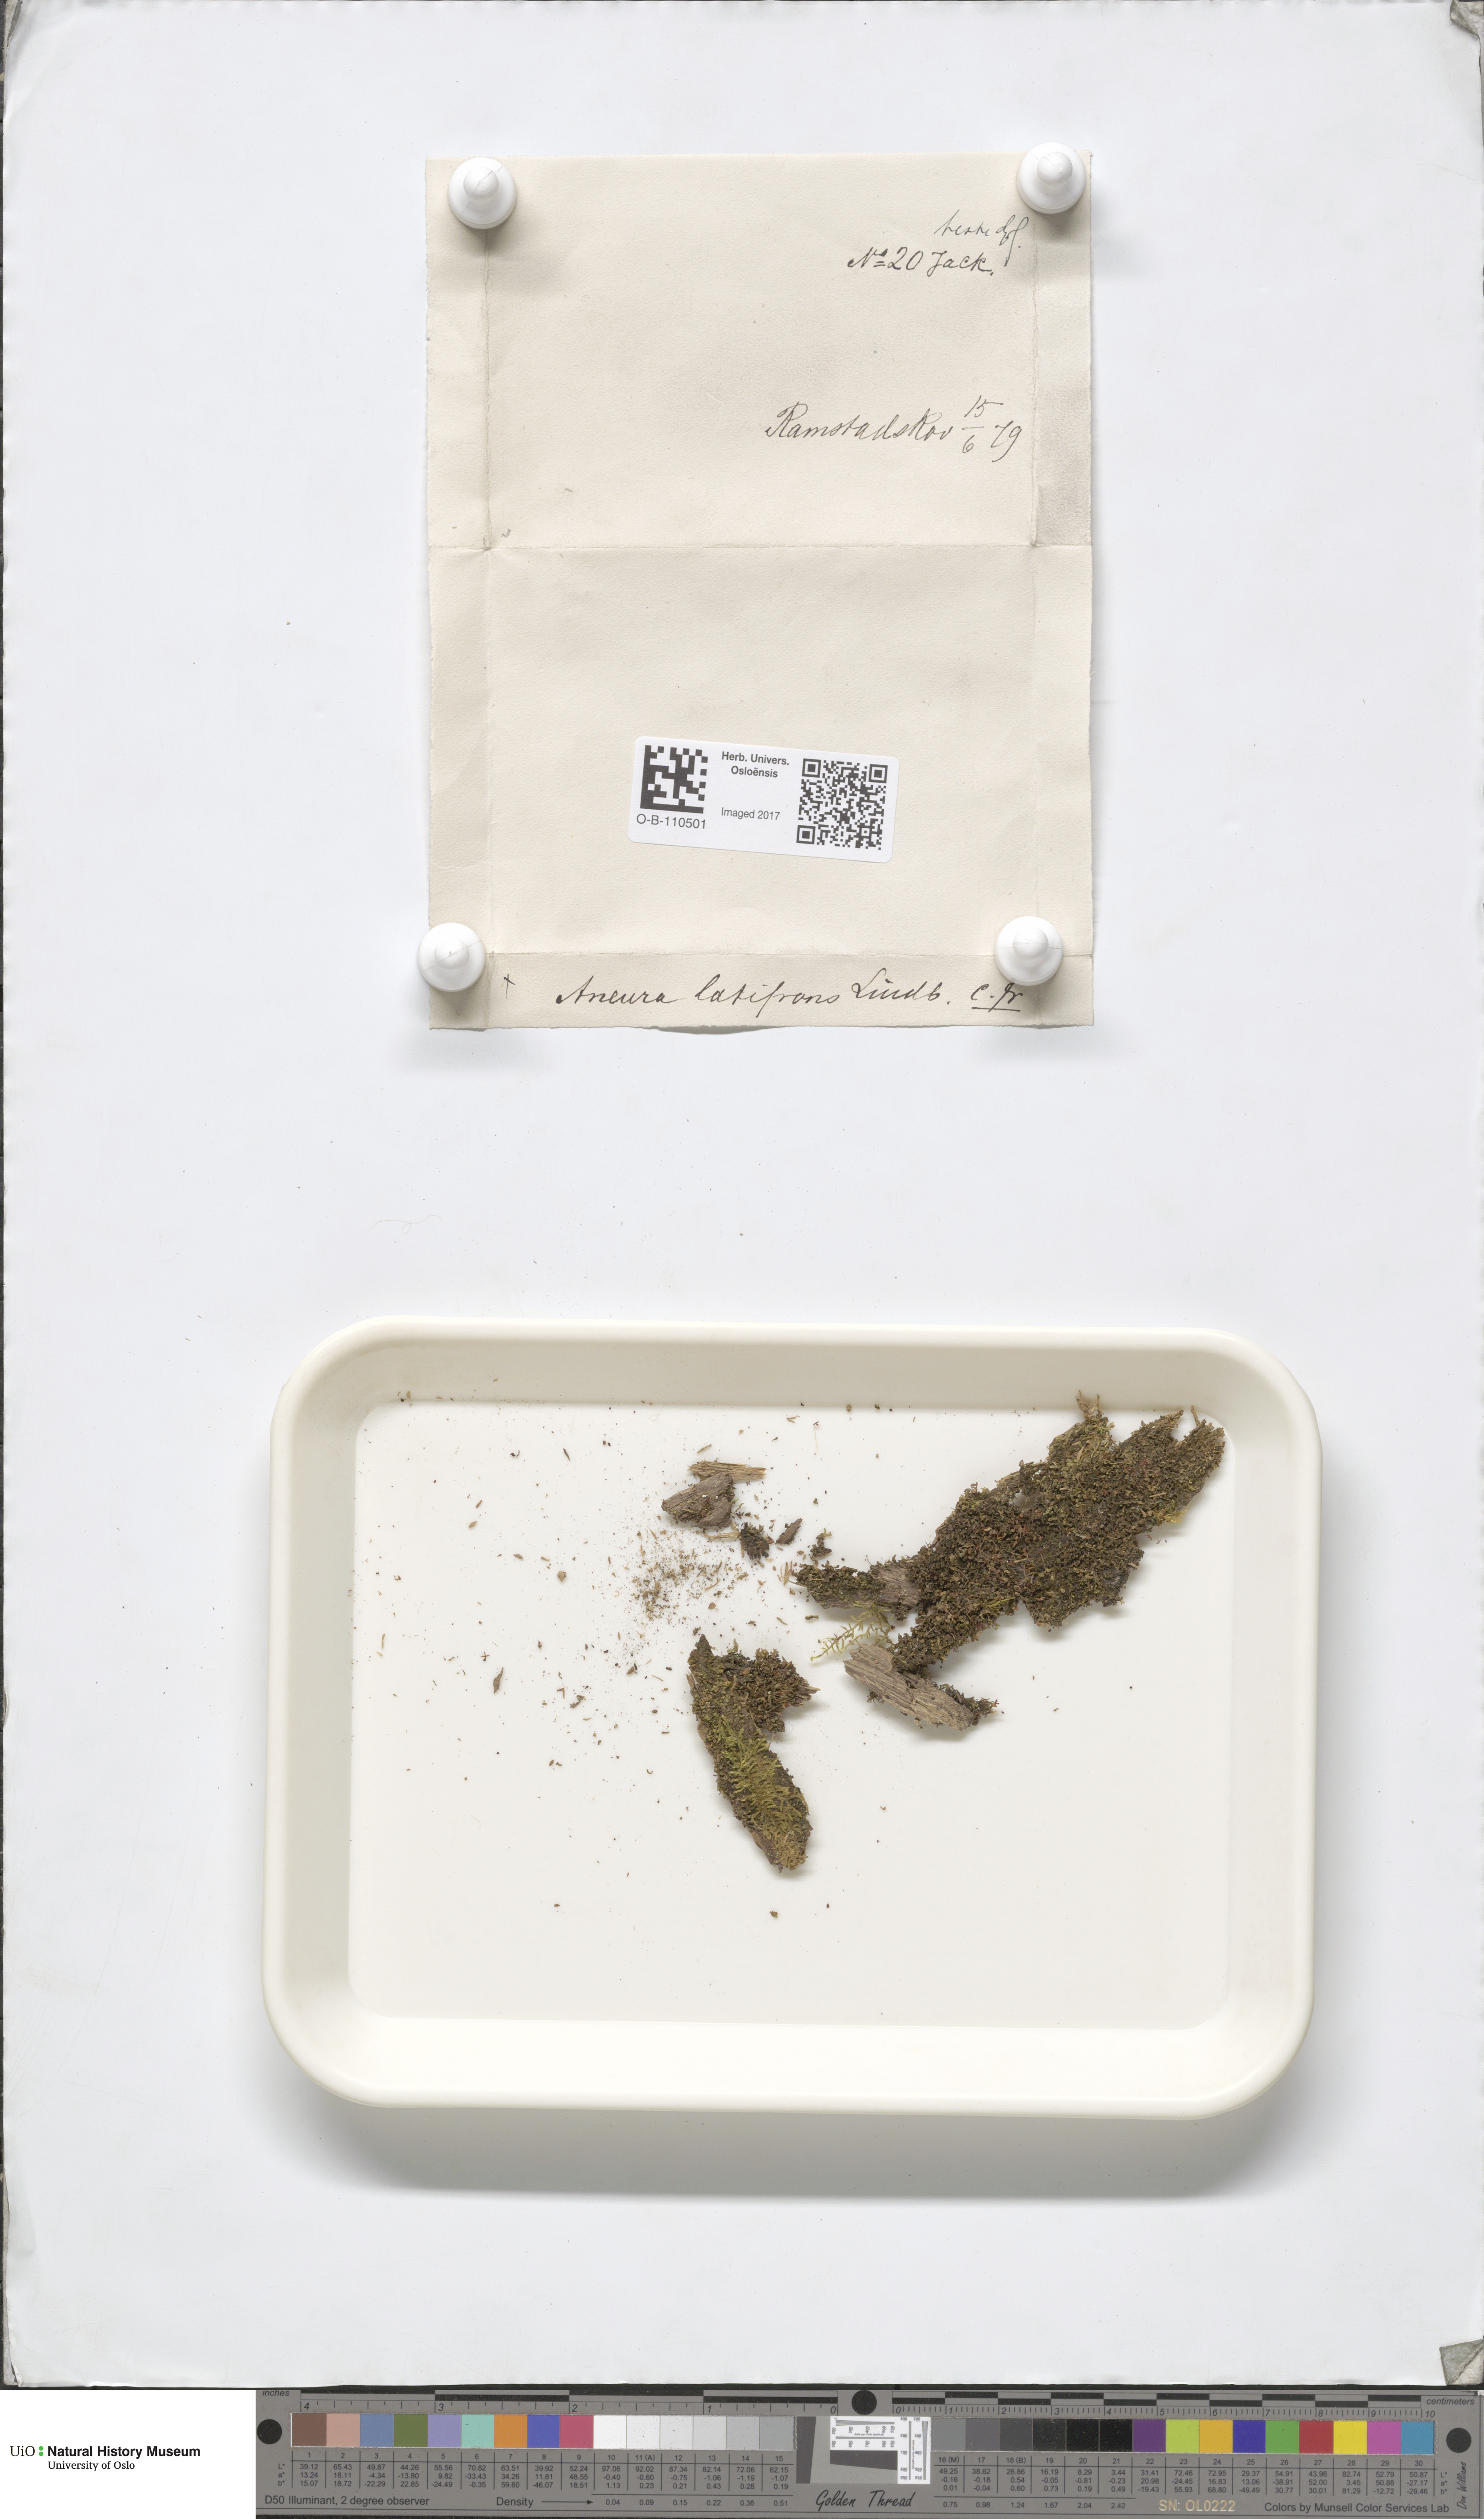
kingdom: Plantae
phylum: Marchantiophyta
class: Jungermanniopsida
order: Metzgeriales
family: Aneuraceae
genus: Riccardia
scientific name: Riccardia latifrons
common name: Bog germanderwort
